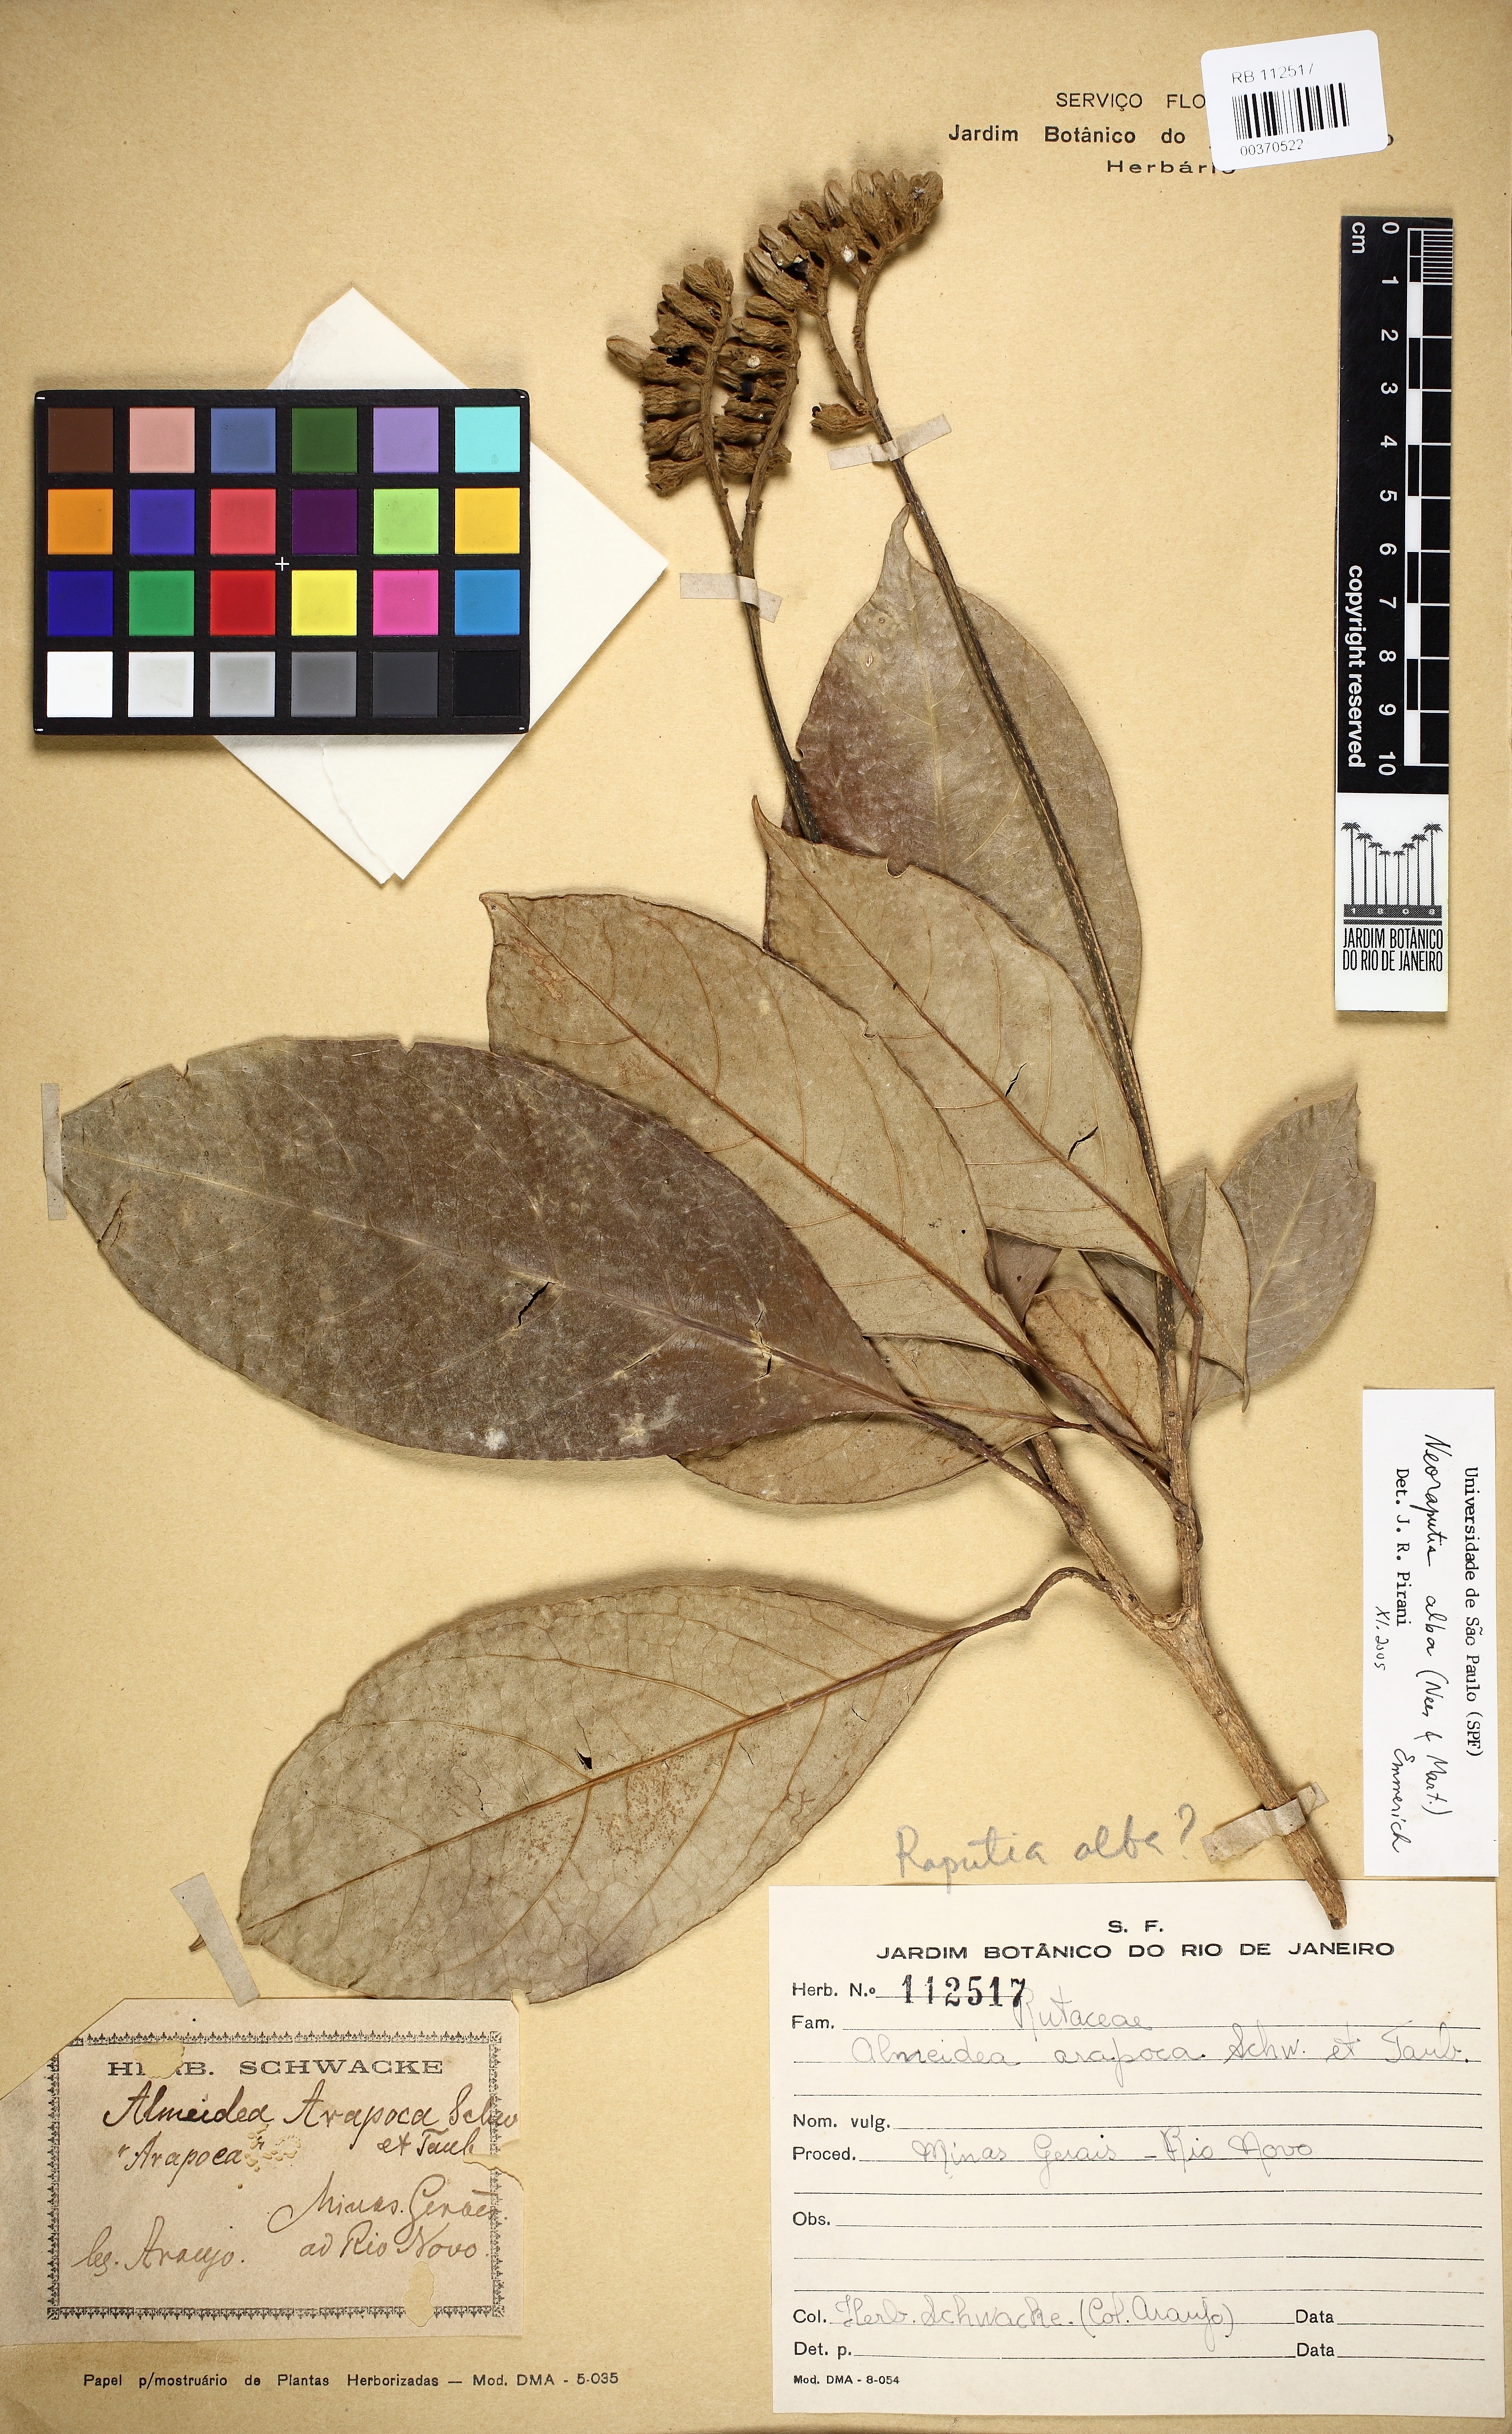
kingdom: Plantae
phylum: Tracheophyta
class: Magnoliopsida
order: Sapindales
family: Rutaceae
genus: Neoraputia
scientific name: Neoraputia alba
